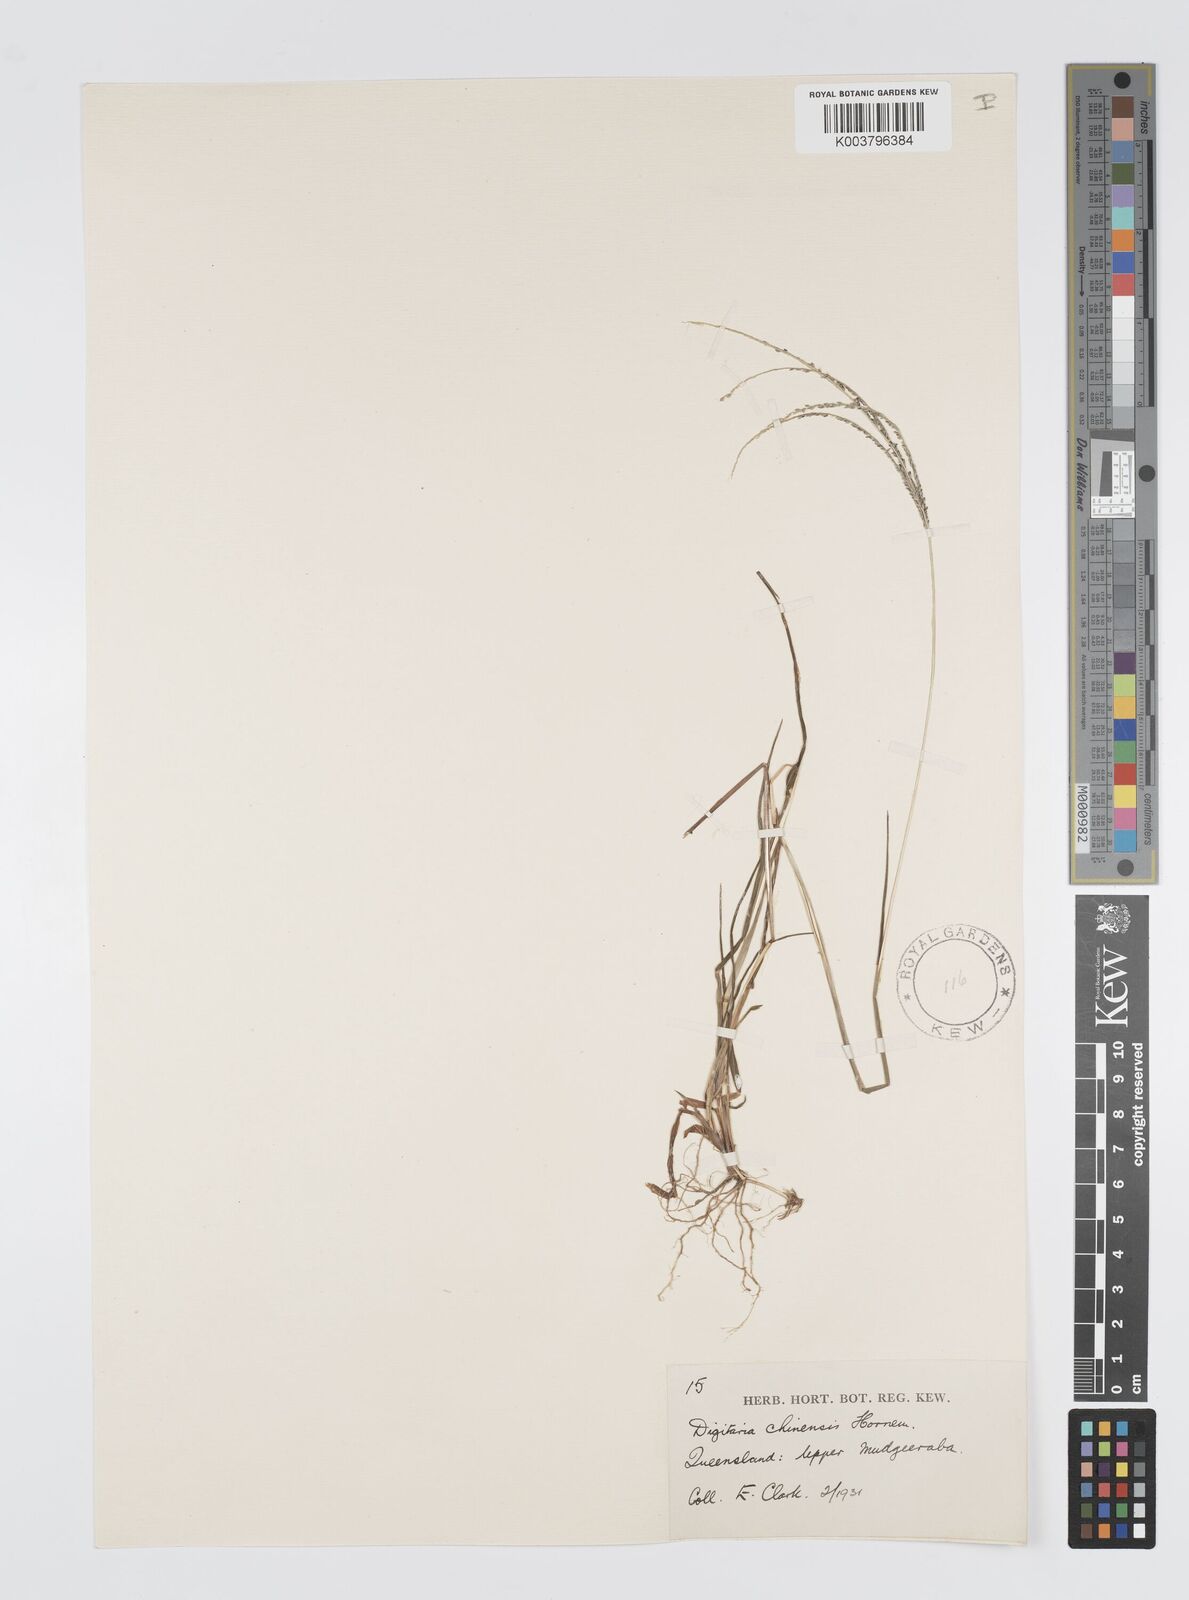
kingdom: Plantae
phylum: Tracheophyta
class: Liliopsida
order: Poales
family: Poaceae
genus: Digitaria
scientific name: Digitaria violascens
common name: Violet crabgrass
